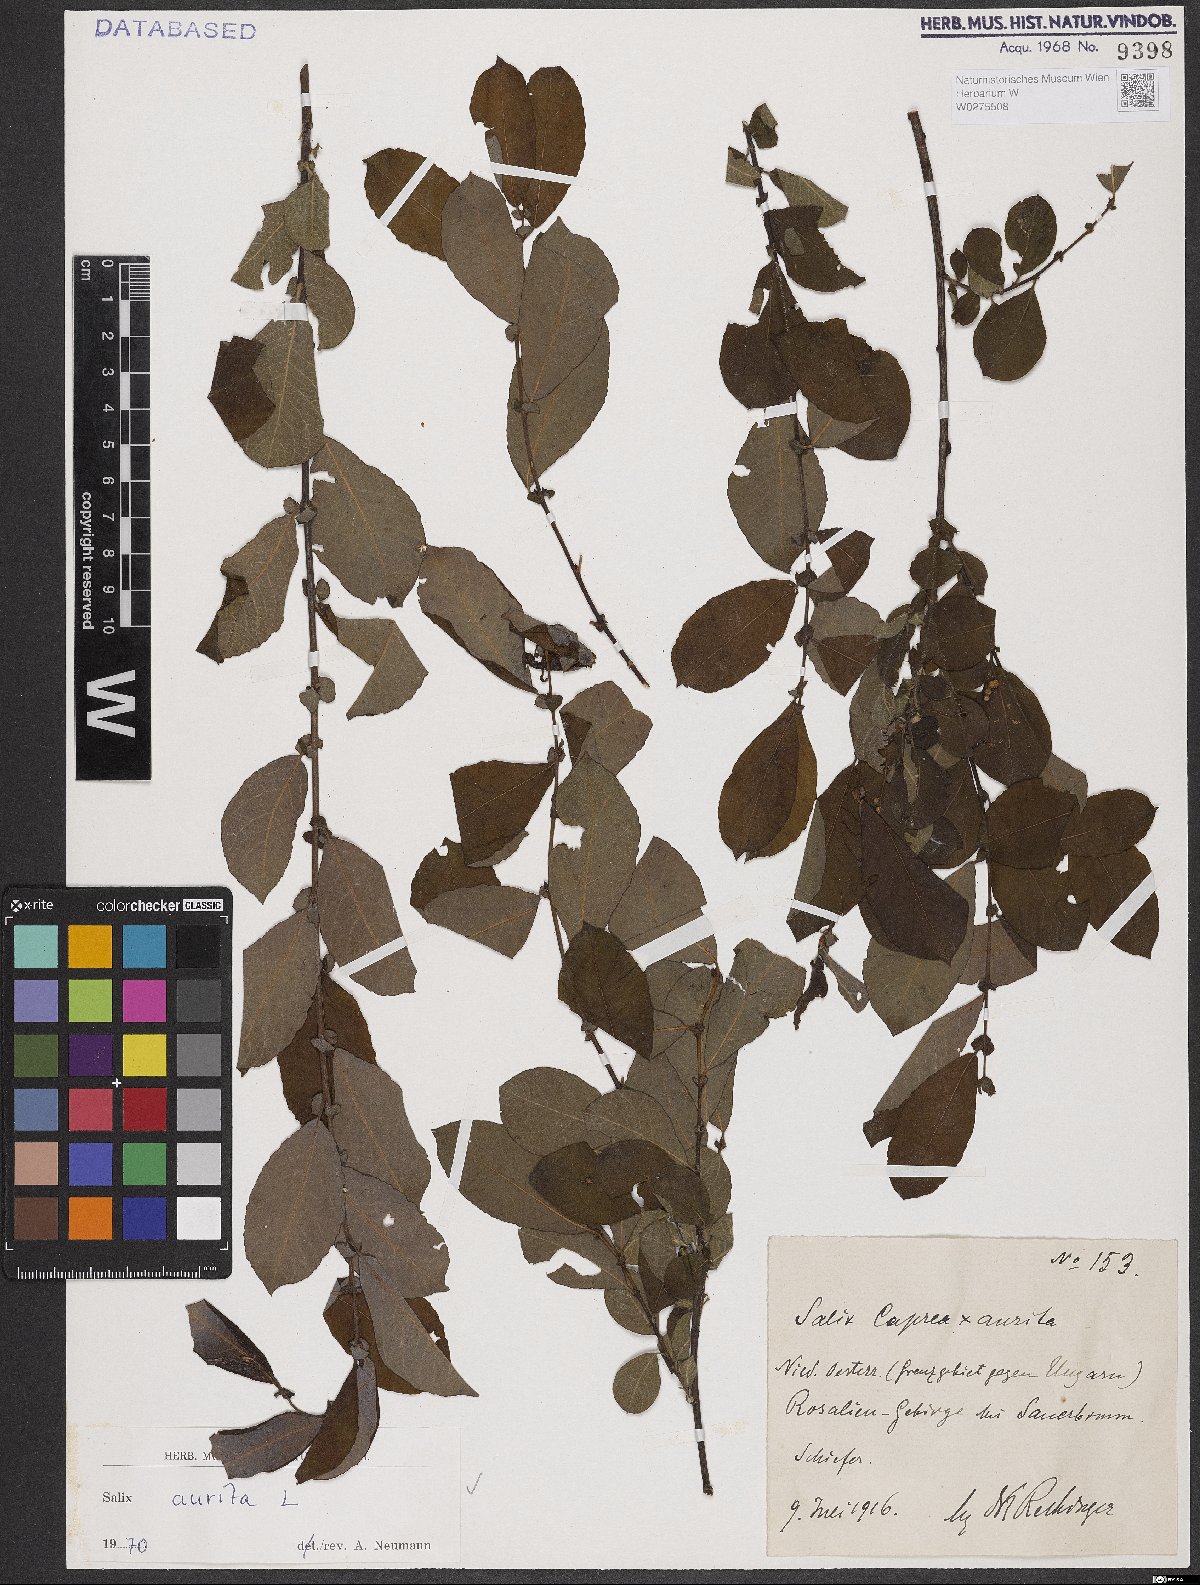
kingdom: Plantae
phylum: Tracheophyta
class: Magnoliopsida
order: Malpighiales
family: Salicaceae
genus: Salix
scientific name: Salix aurita
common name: Eared willow
